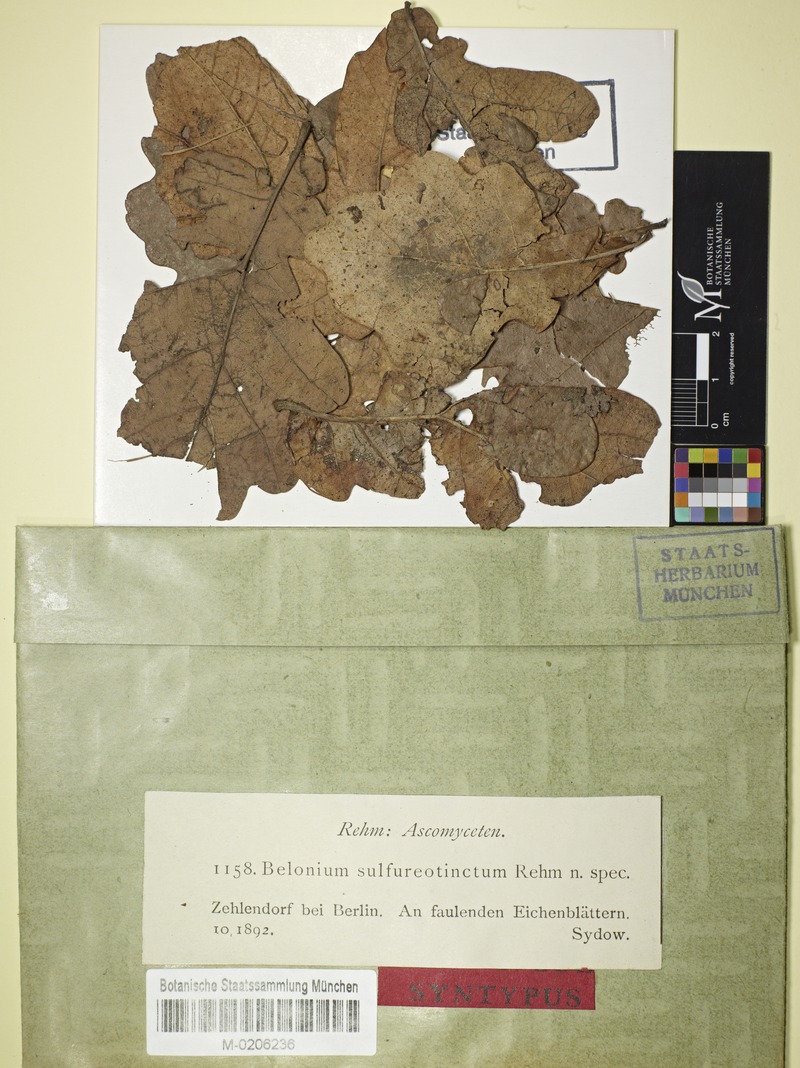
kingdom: Fungi
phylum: Ascomycota
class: Leotiomycetes
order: Helotiales
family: Mollisiaceae
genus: Niptera
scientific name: Niptera sulphureotincta
